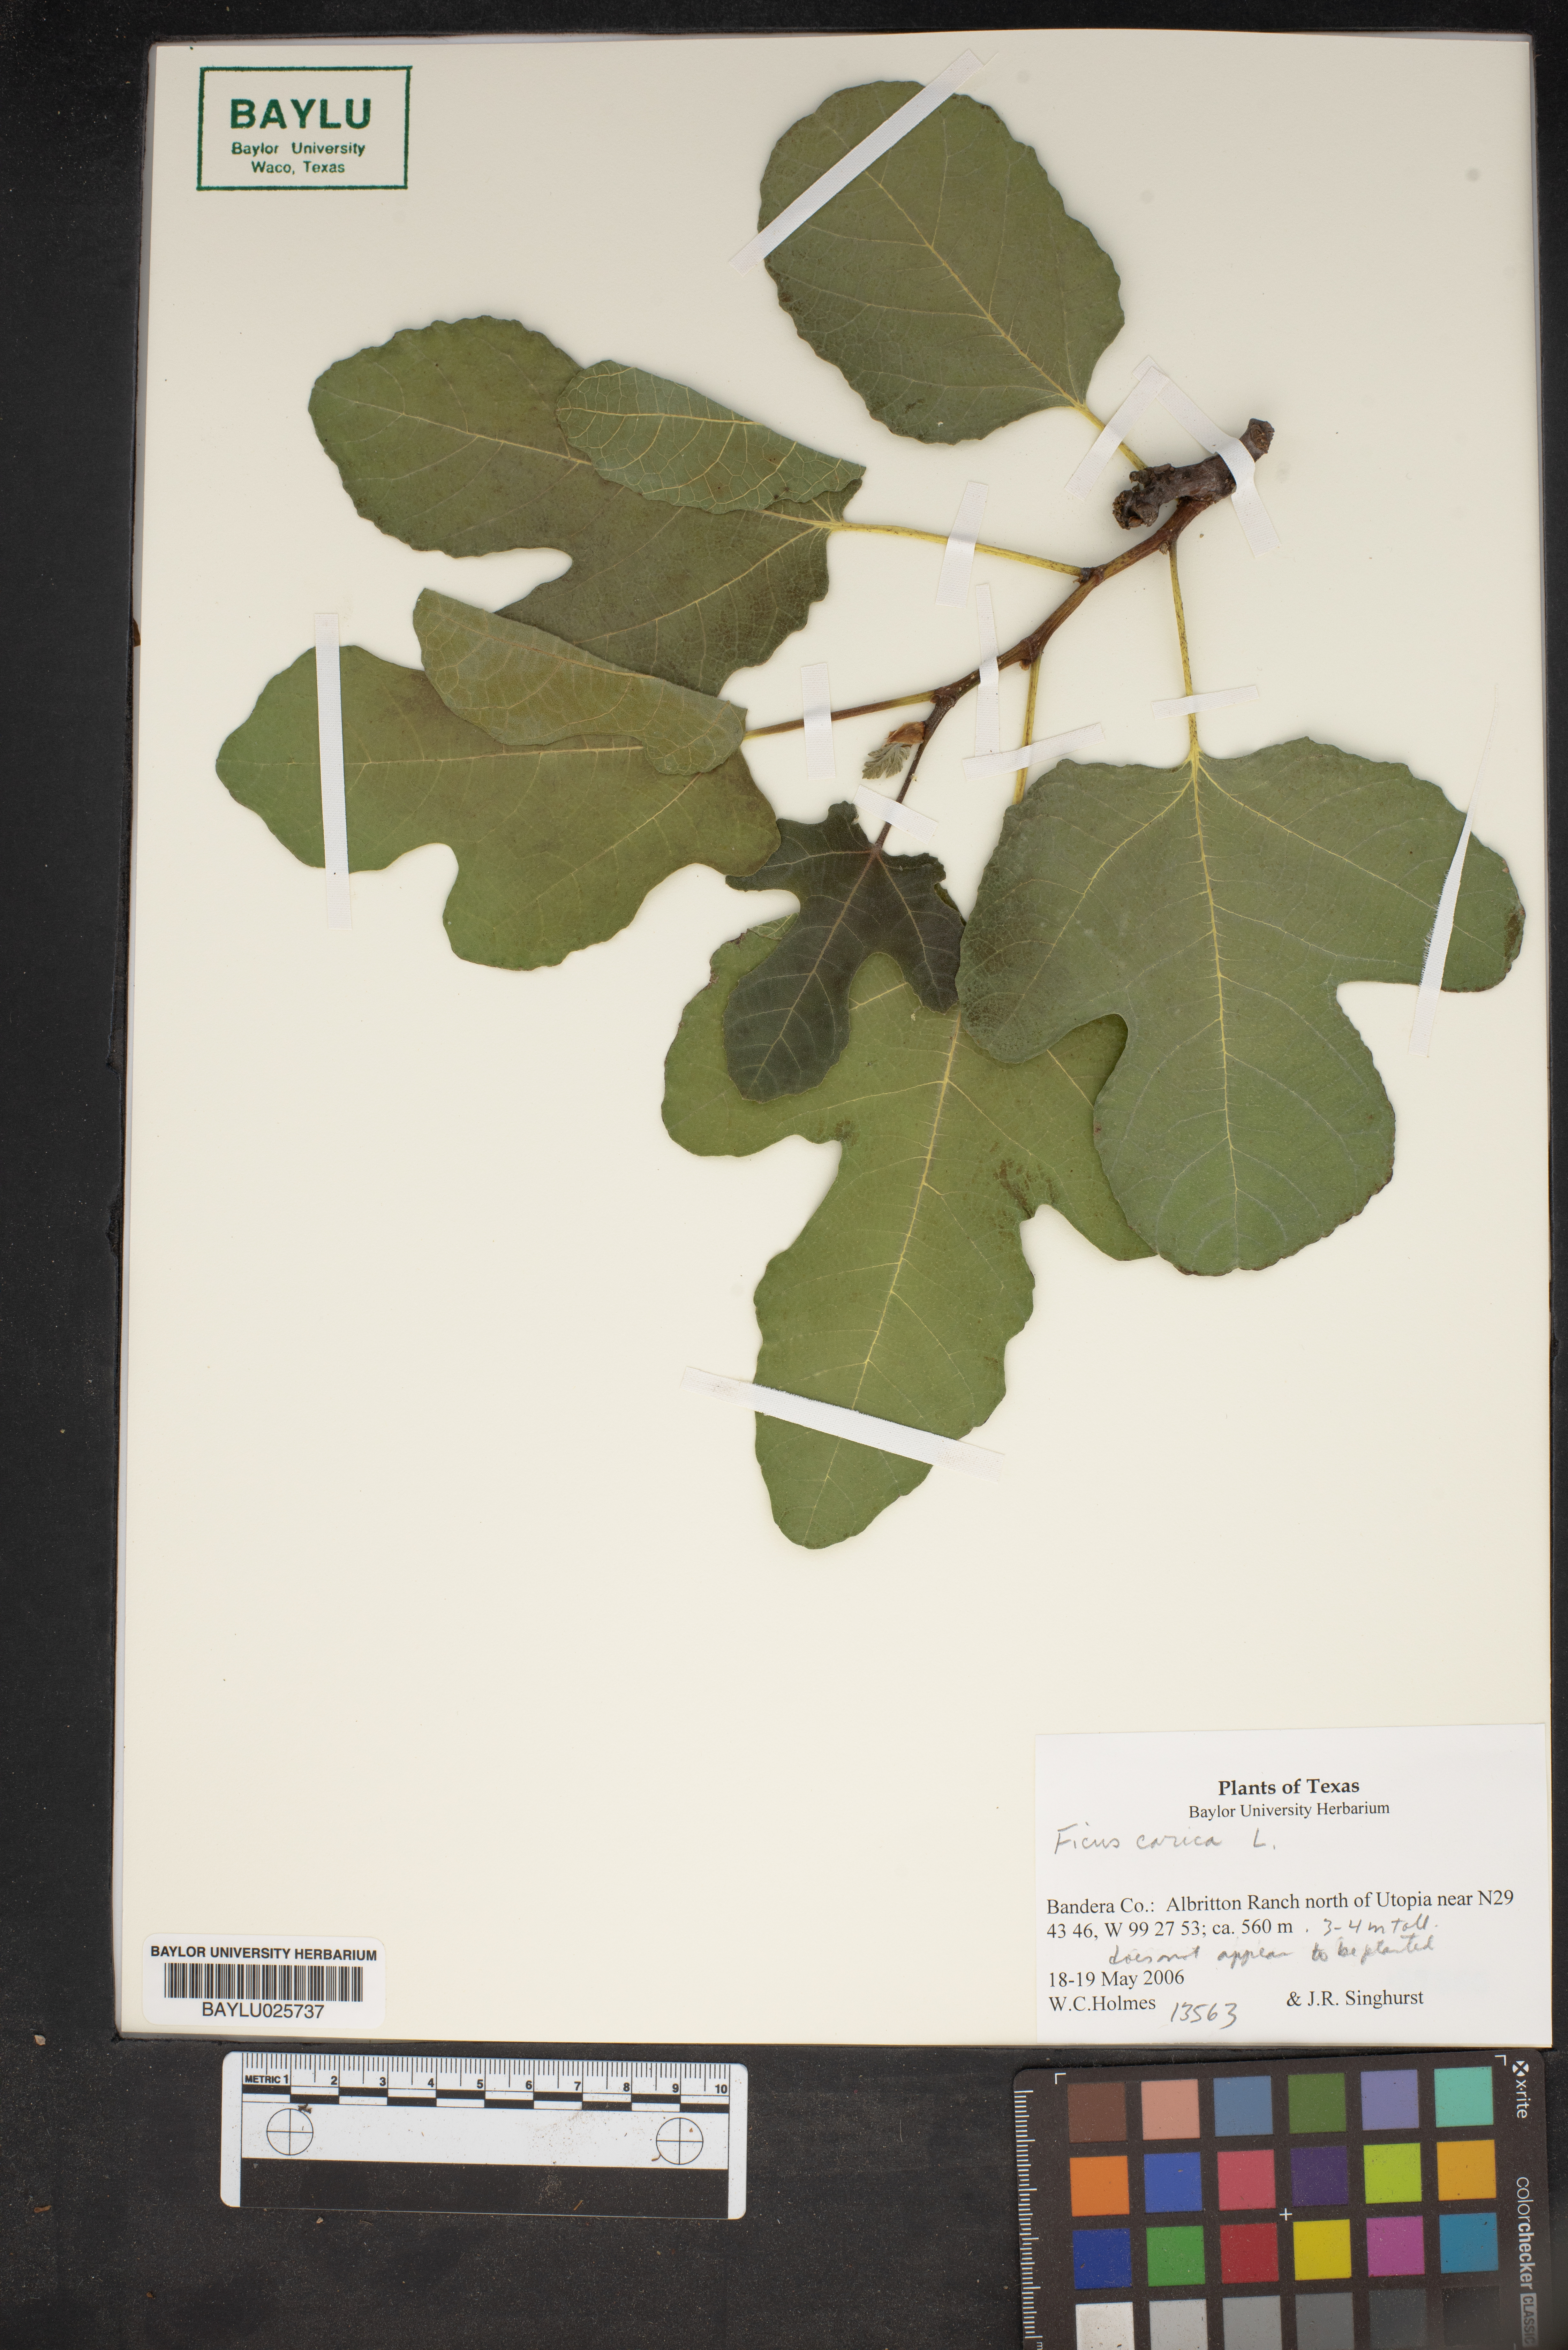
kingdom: Plantae
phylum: Tracheophyta
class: Magnoliopsida
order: Rosales
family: Moraceae
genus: Ficus
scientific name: Ficus carica
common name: Fig
